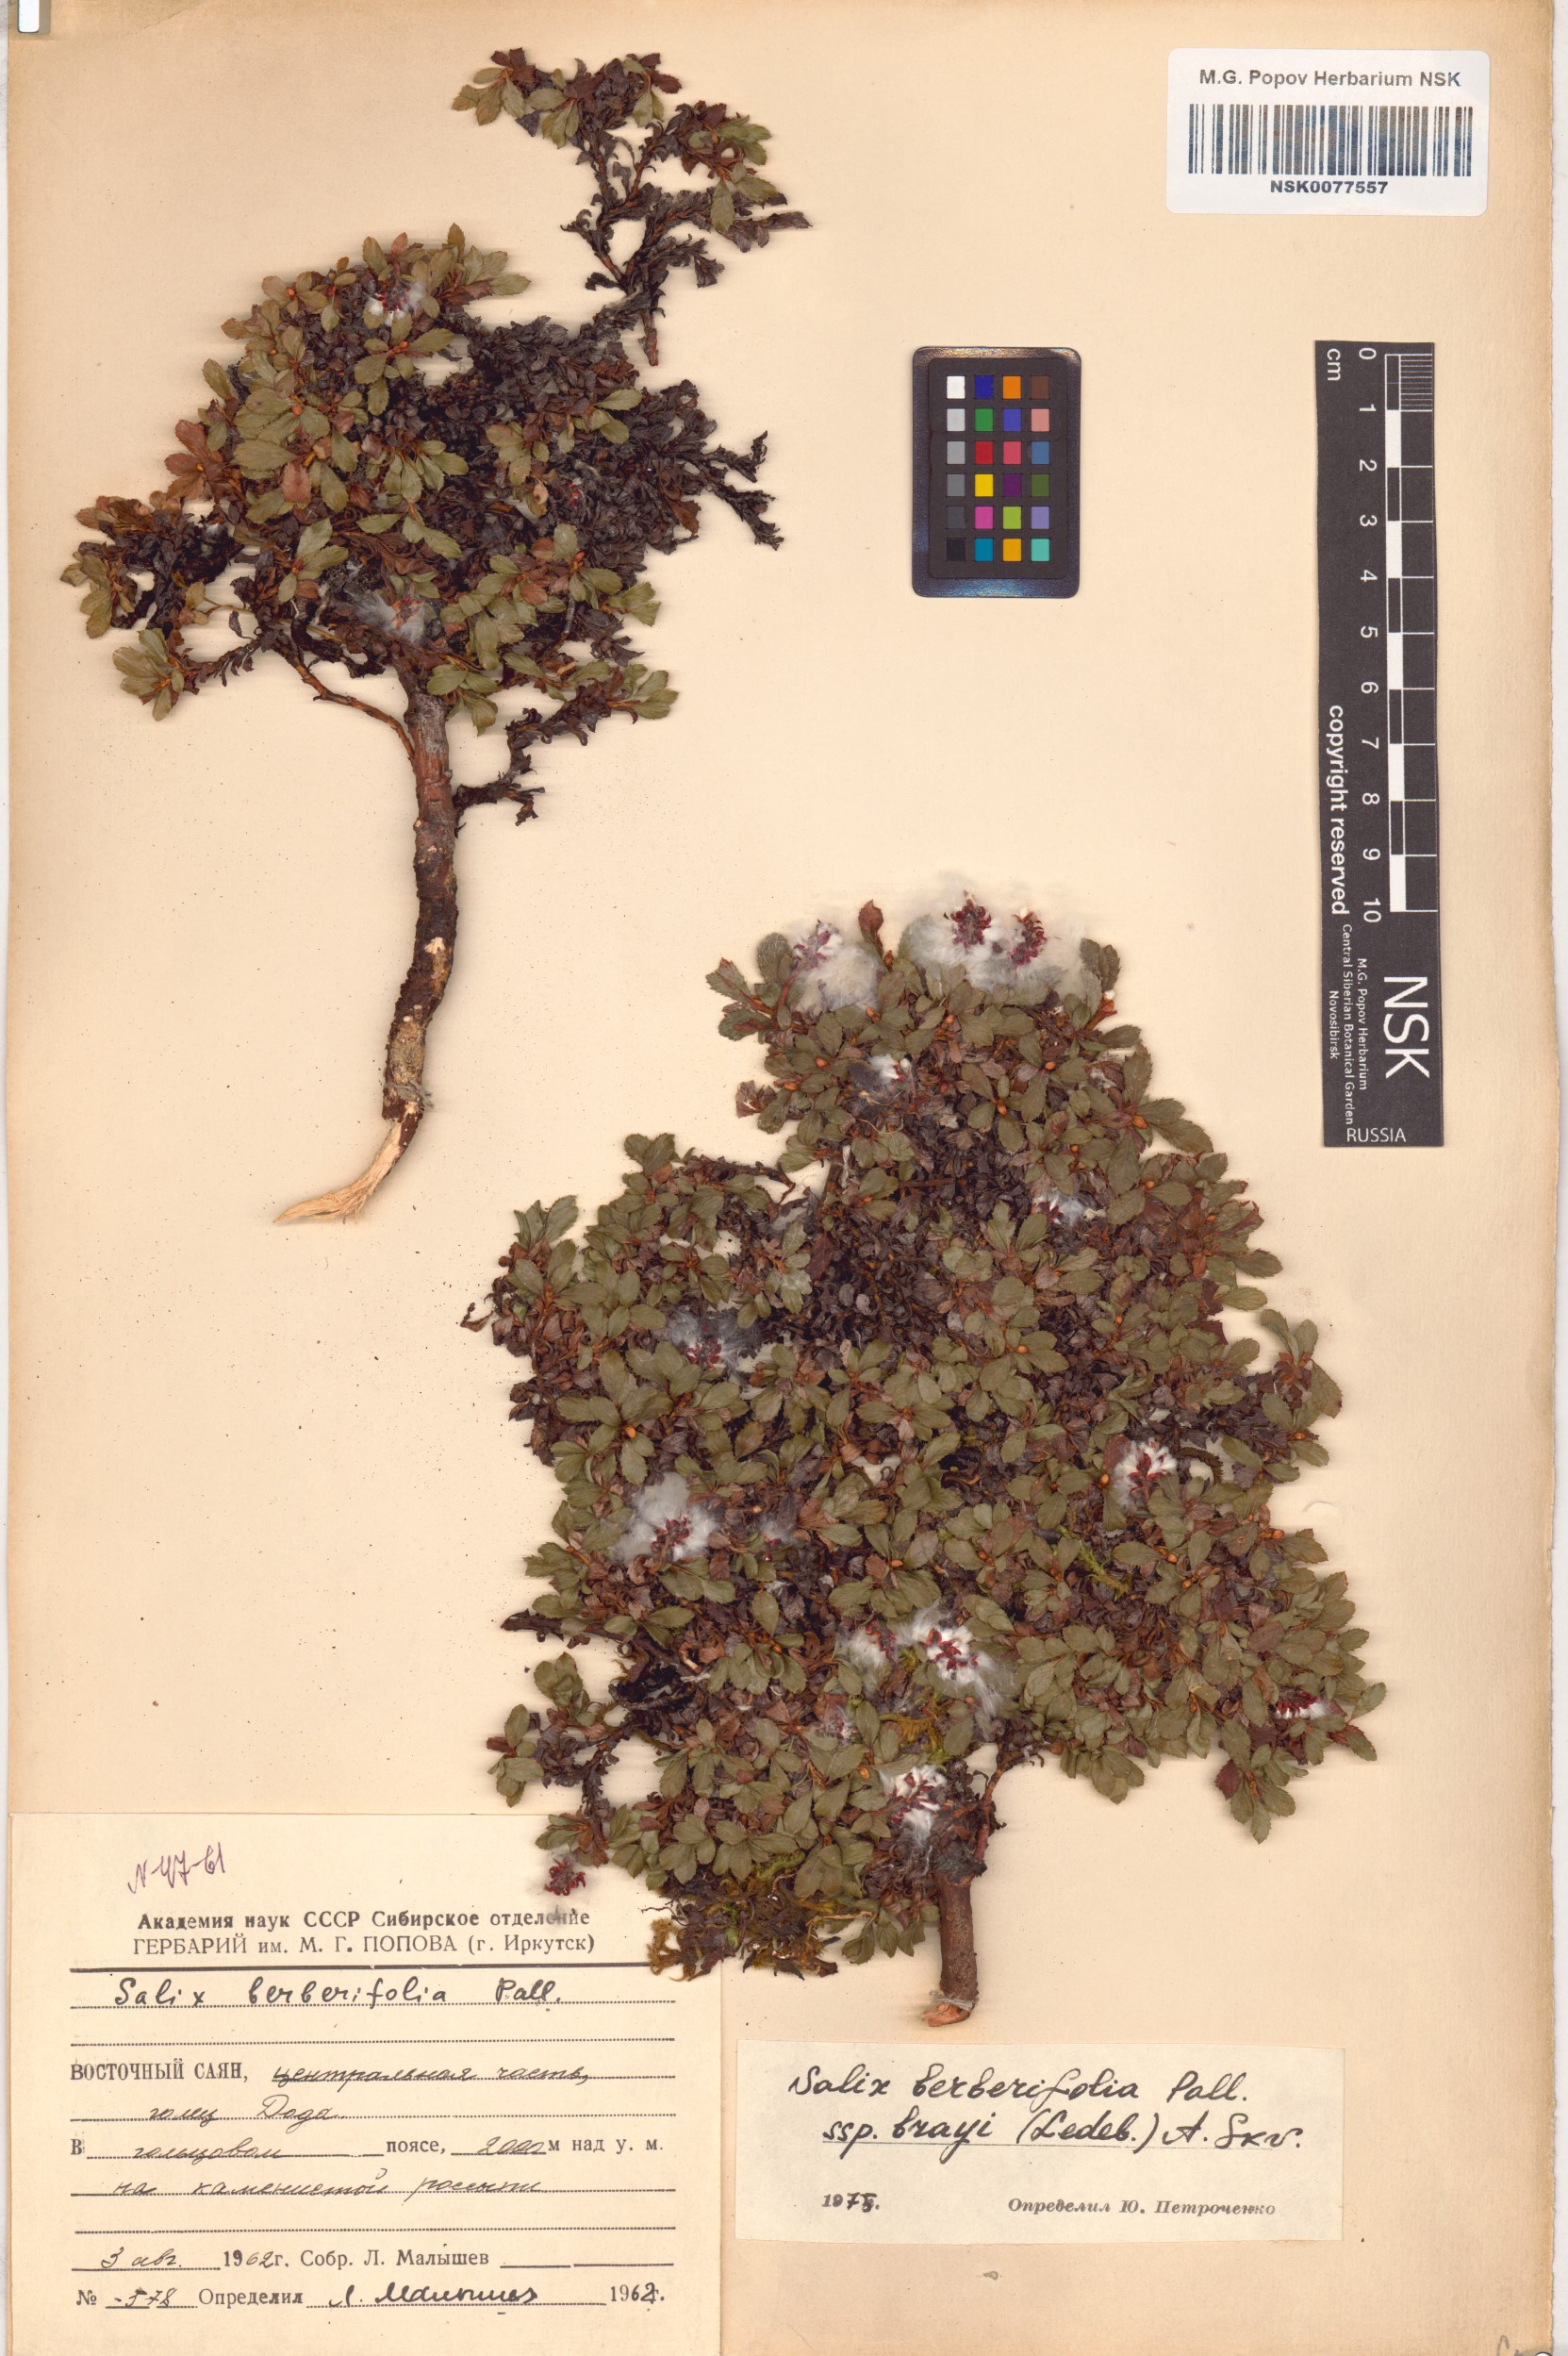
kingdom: Plantae
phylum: Tracheophyta
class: Magnoliopsida
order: Malpighiales
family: Salicaceae
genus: Salix
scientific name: Salix berberifolia
